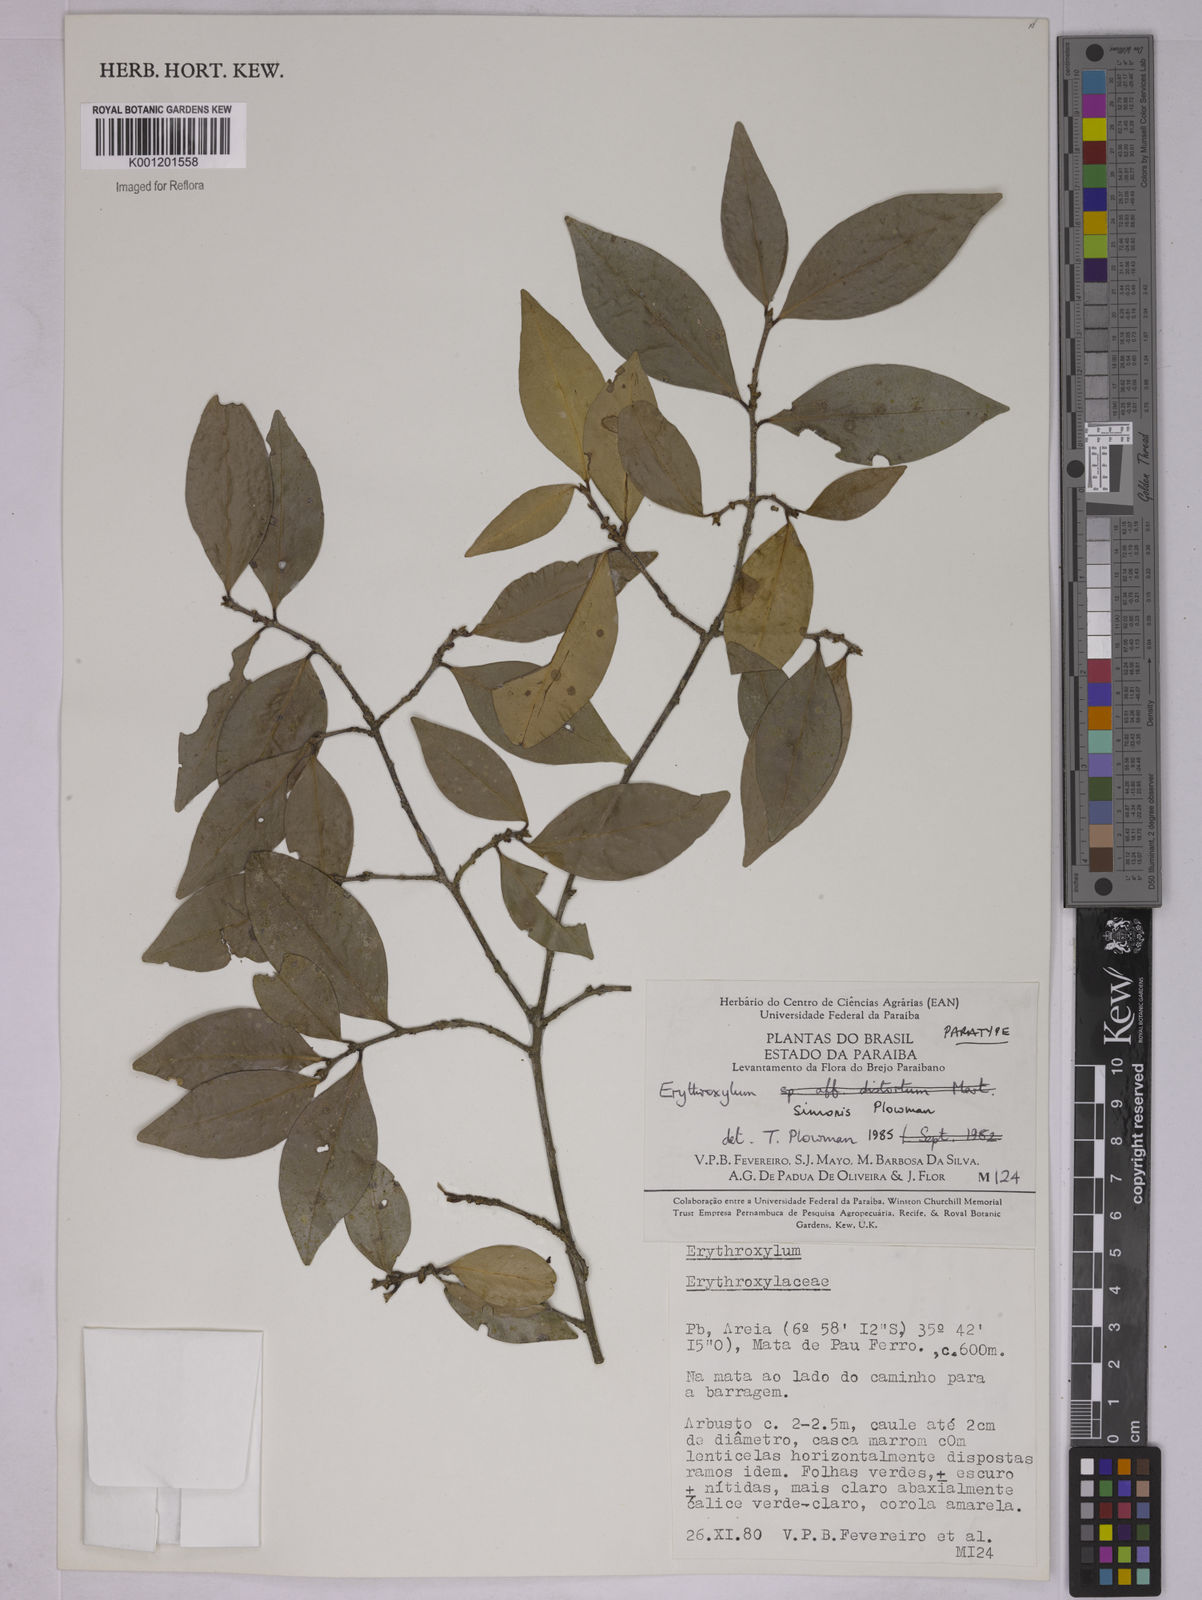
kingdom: Plantae
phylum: Tracheophyta
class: Magnoliopsida
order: Malpighiales
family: Erythroxylaceae
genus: Erythroxylum
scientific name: Erythroxylum simonis
